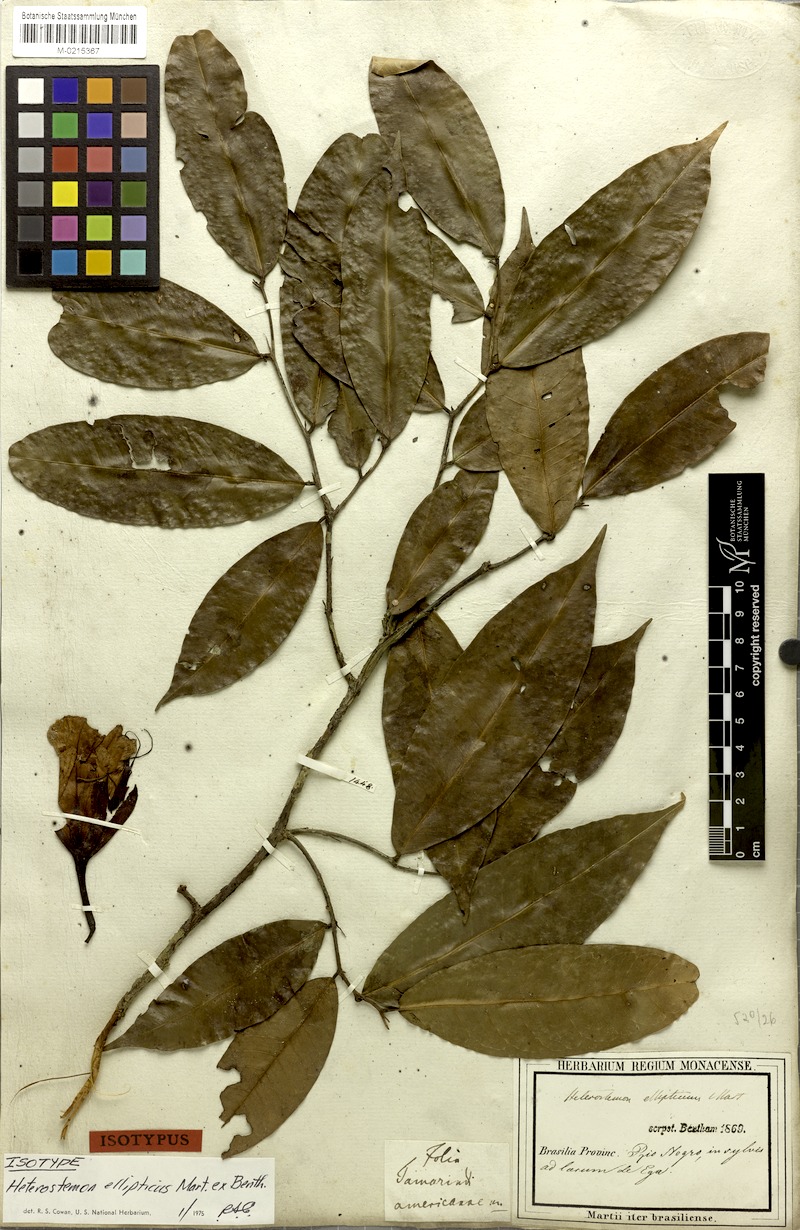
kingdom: Plantae
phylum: Tracheophyta
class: Magnoliopsida
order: Fabales
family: Fabaceae
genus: Heterostemon
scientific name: Heterostemon ellipticus
